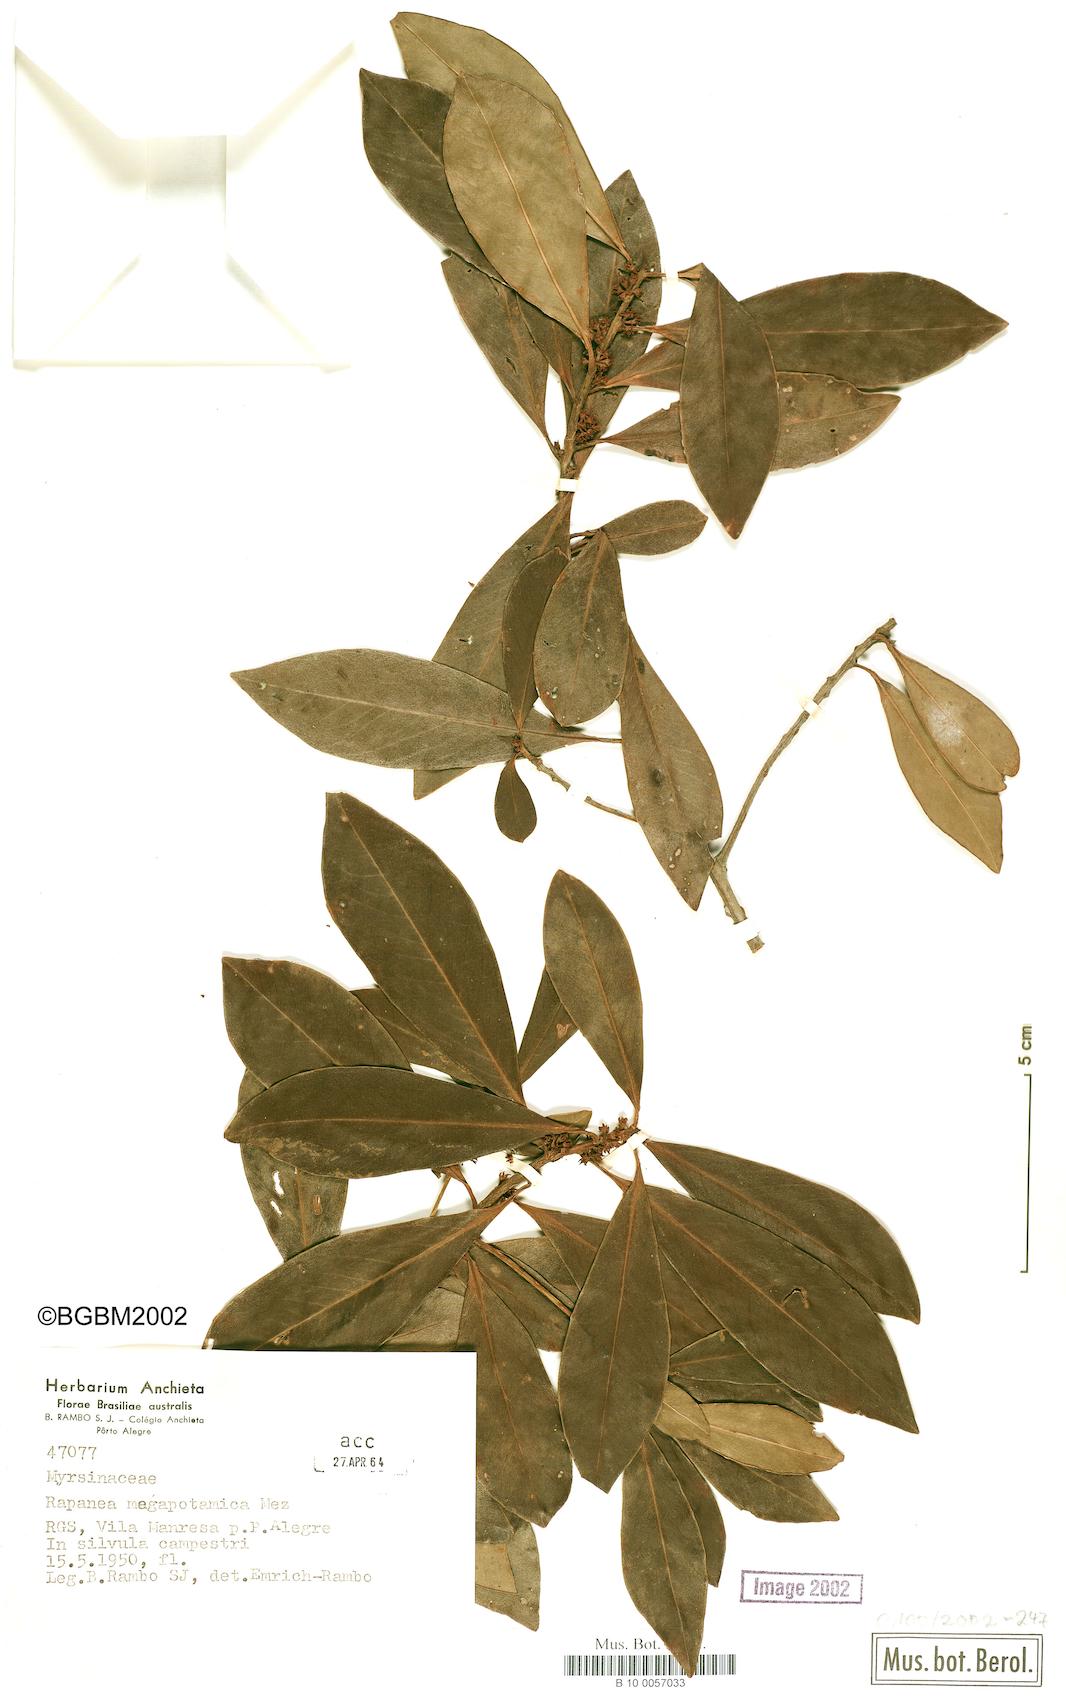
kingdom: Plantae
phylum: Tracheophyta
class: Magnoliopsida
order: Ericales
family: Primulaceae
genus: Myrsine
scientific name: Myrsine lorentziana
